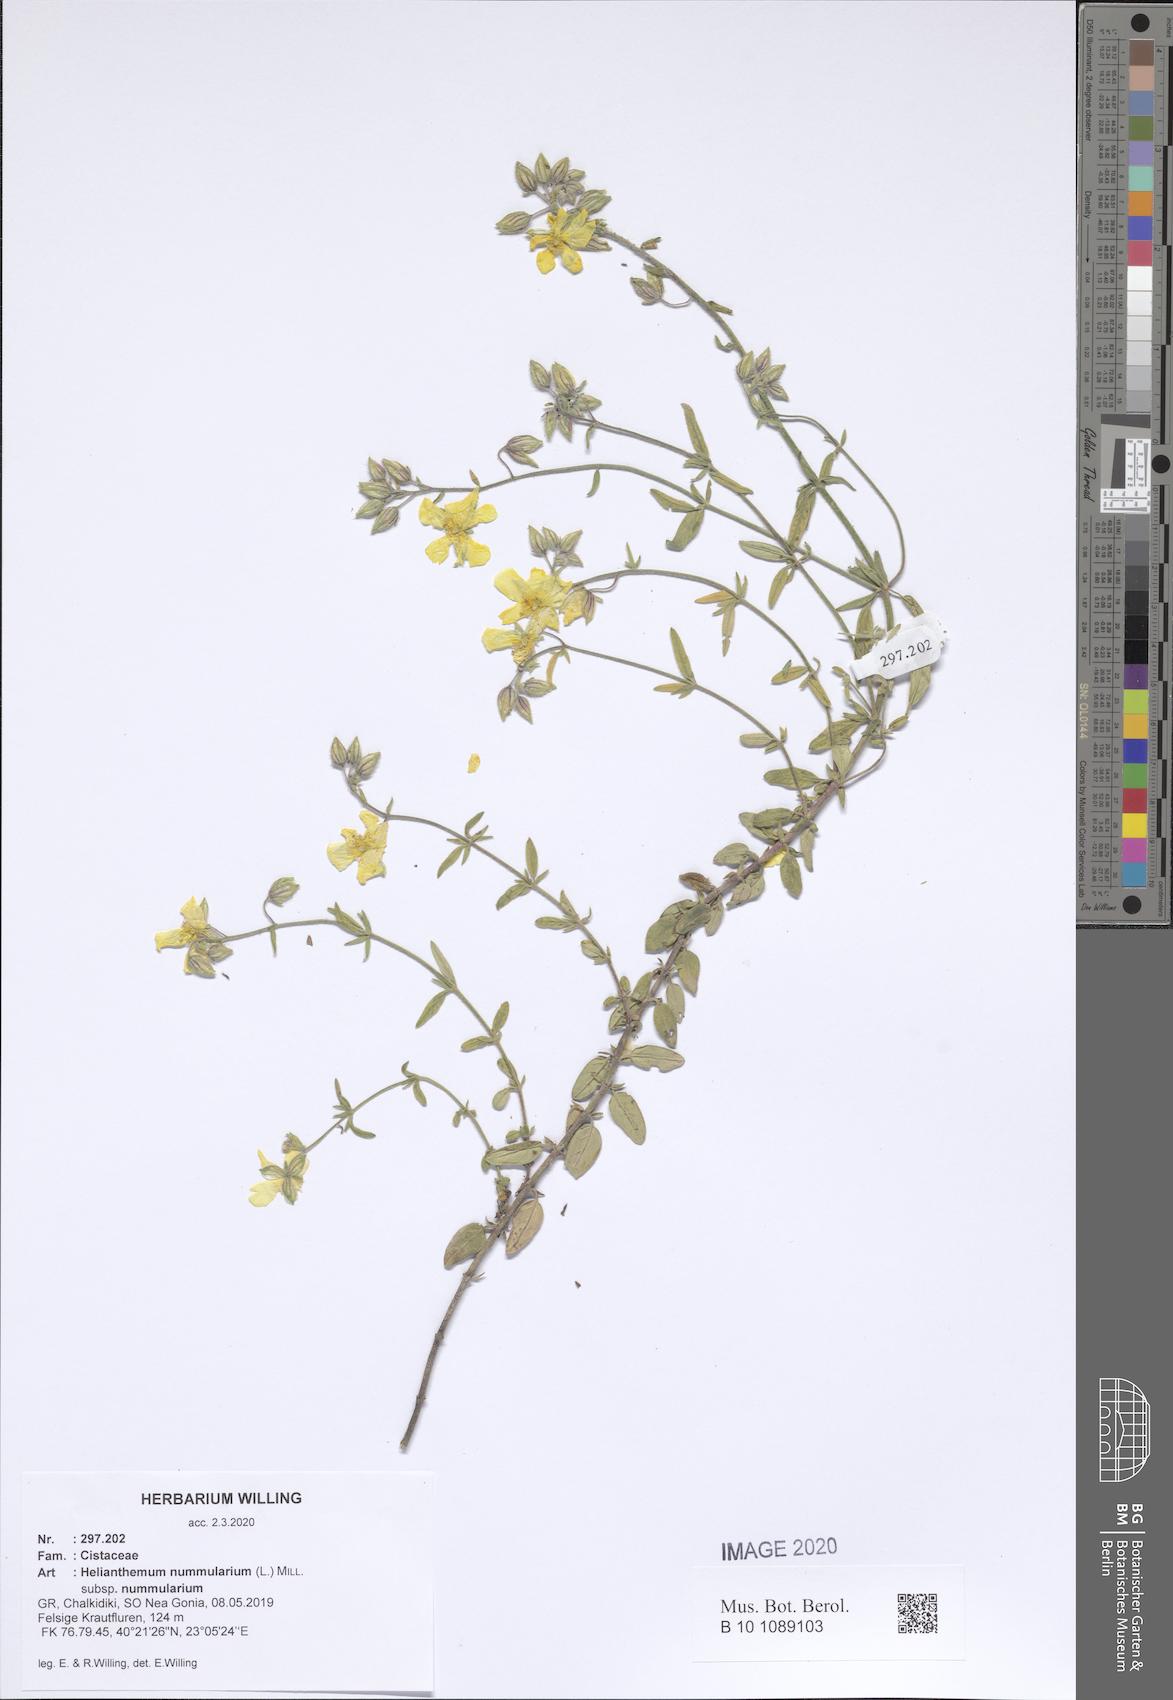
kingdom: Plantae
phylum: Tracheophyta
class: Magnoliopsida
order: Malvales
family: Cistaceae
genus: Helianthemum
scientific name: Helianthemum nummularium
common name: Common rock-rose
